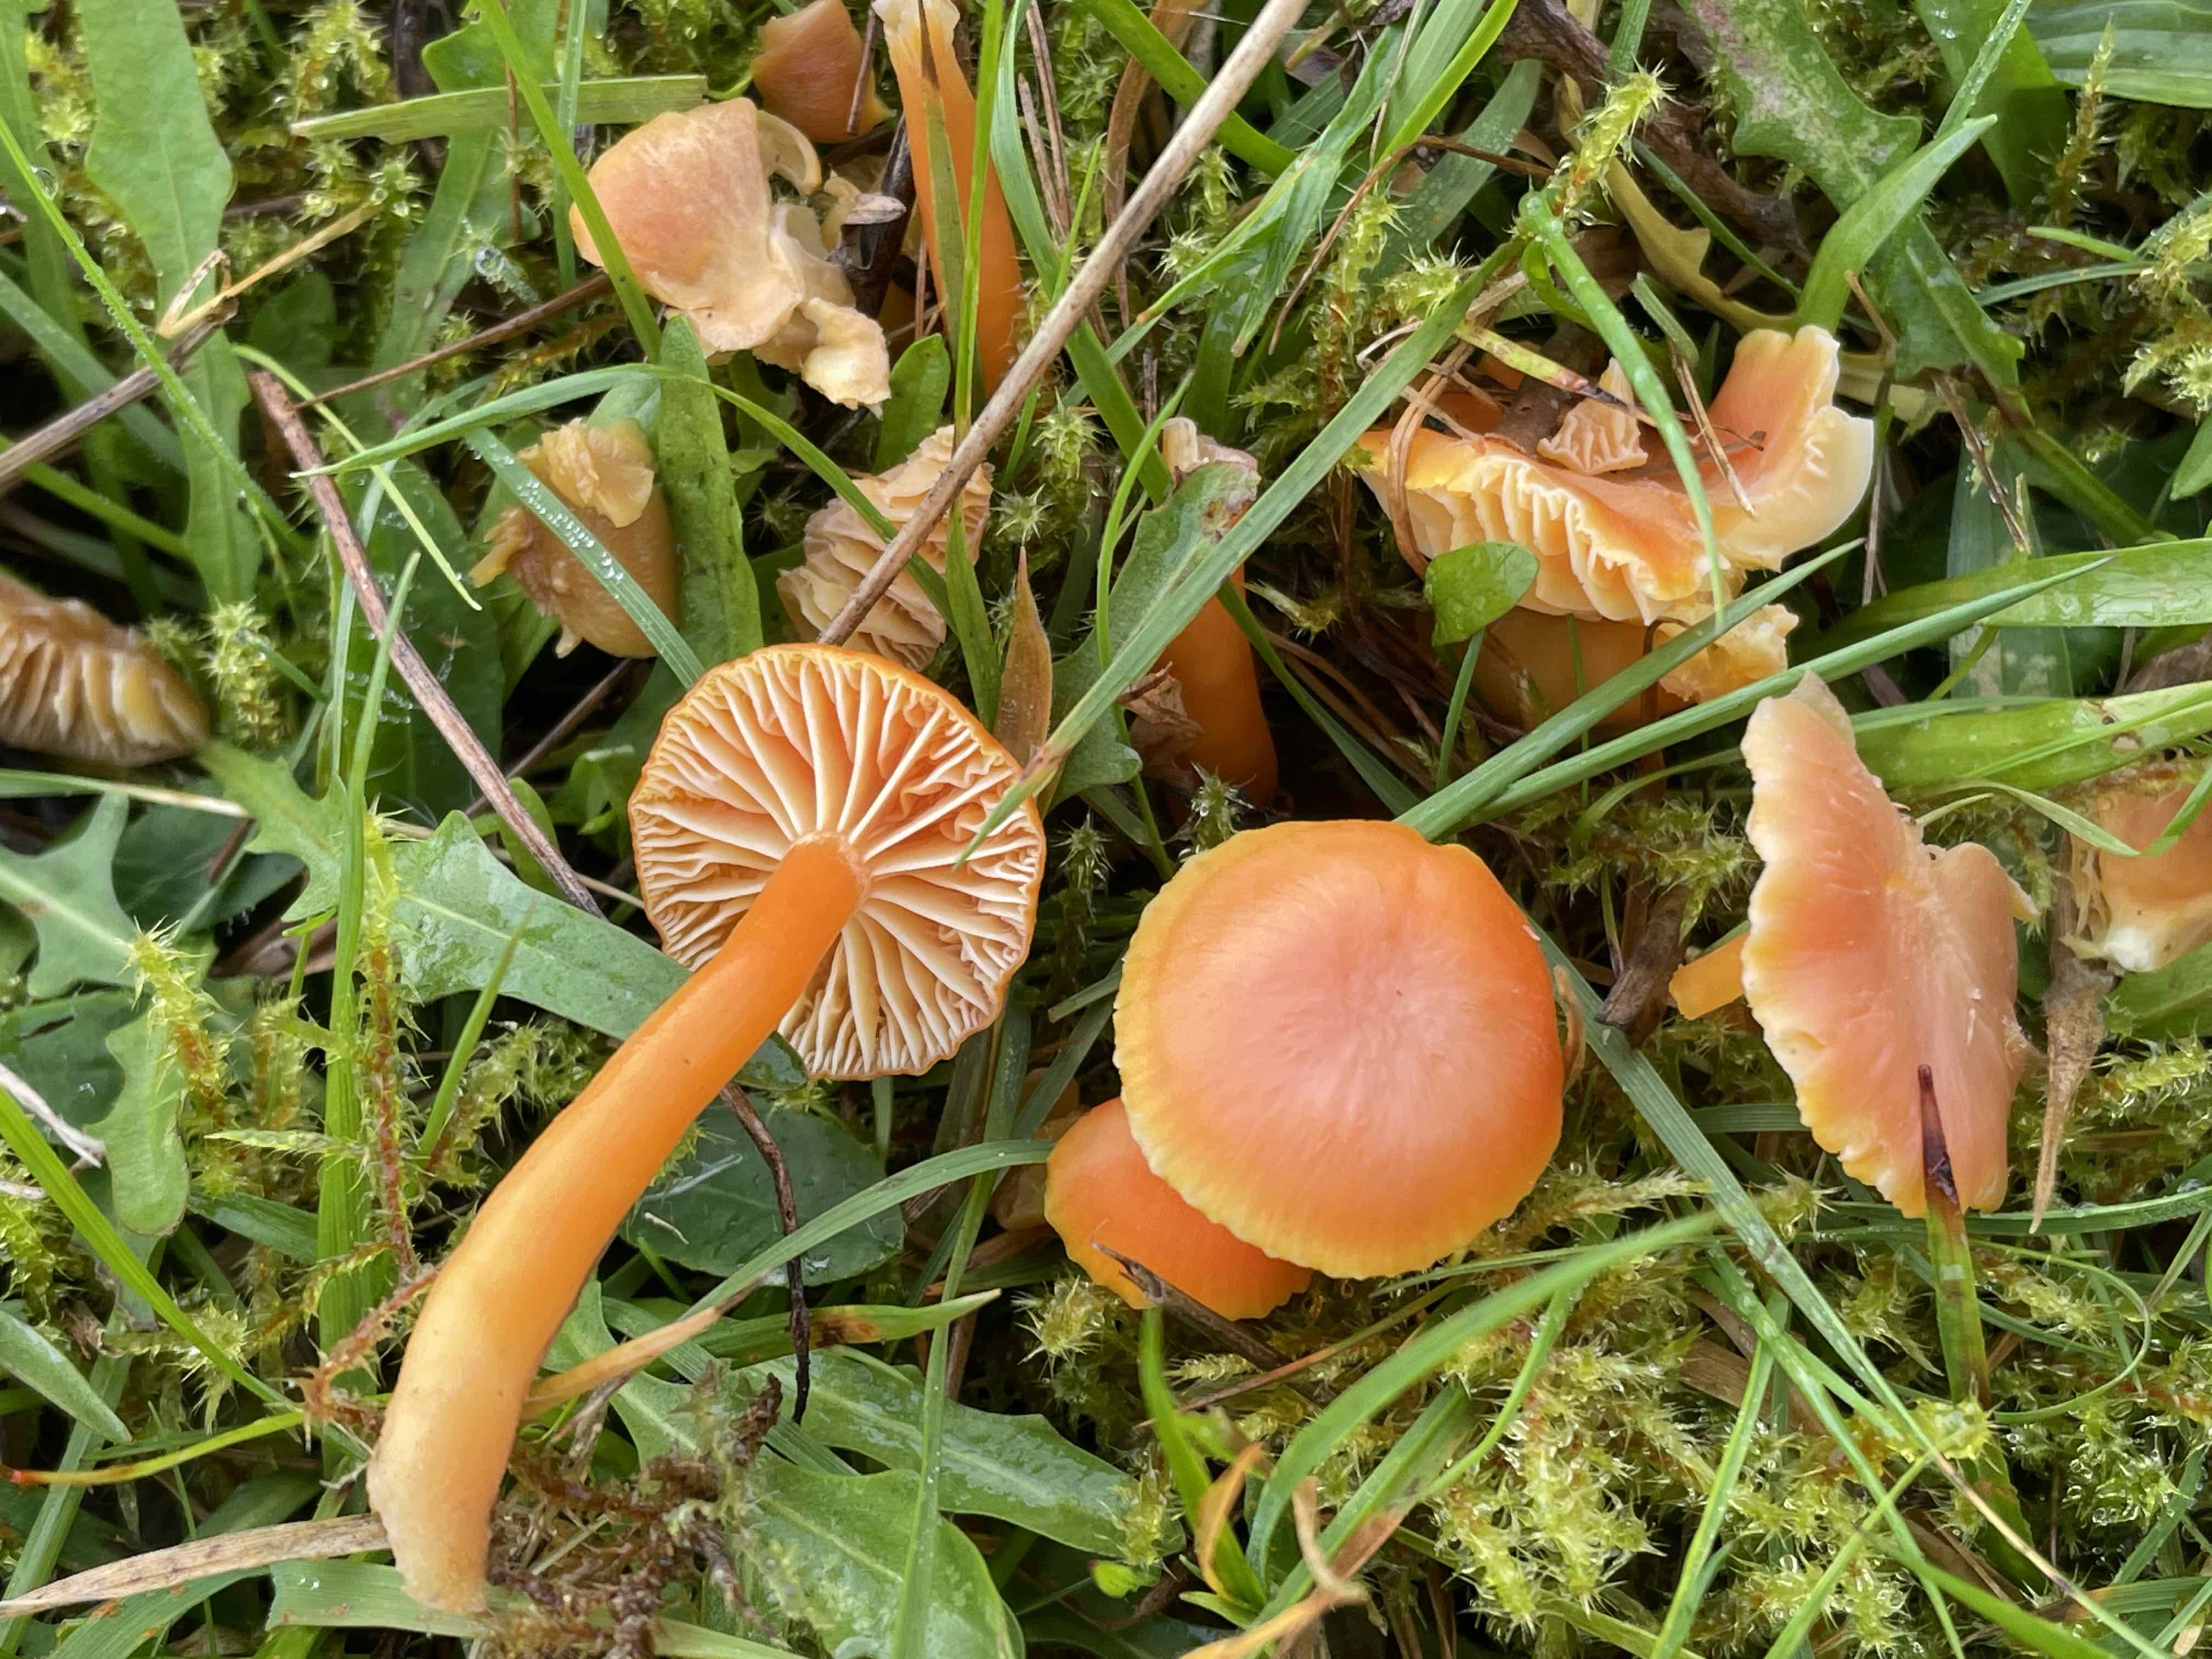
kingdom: Fungi
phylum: Basidiomycota
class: Agaricomycetes
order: Agaricales
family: Hygrophoraceae
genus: Hygrocybe
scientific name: Hygrocybe reidii
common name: honning-vokshat
